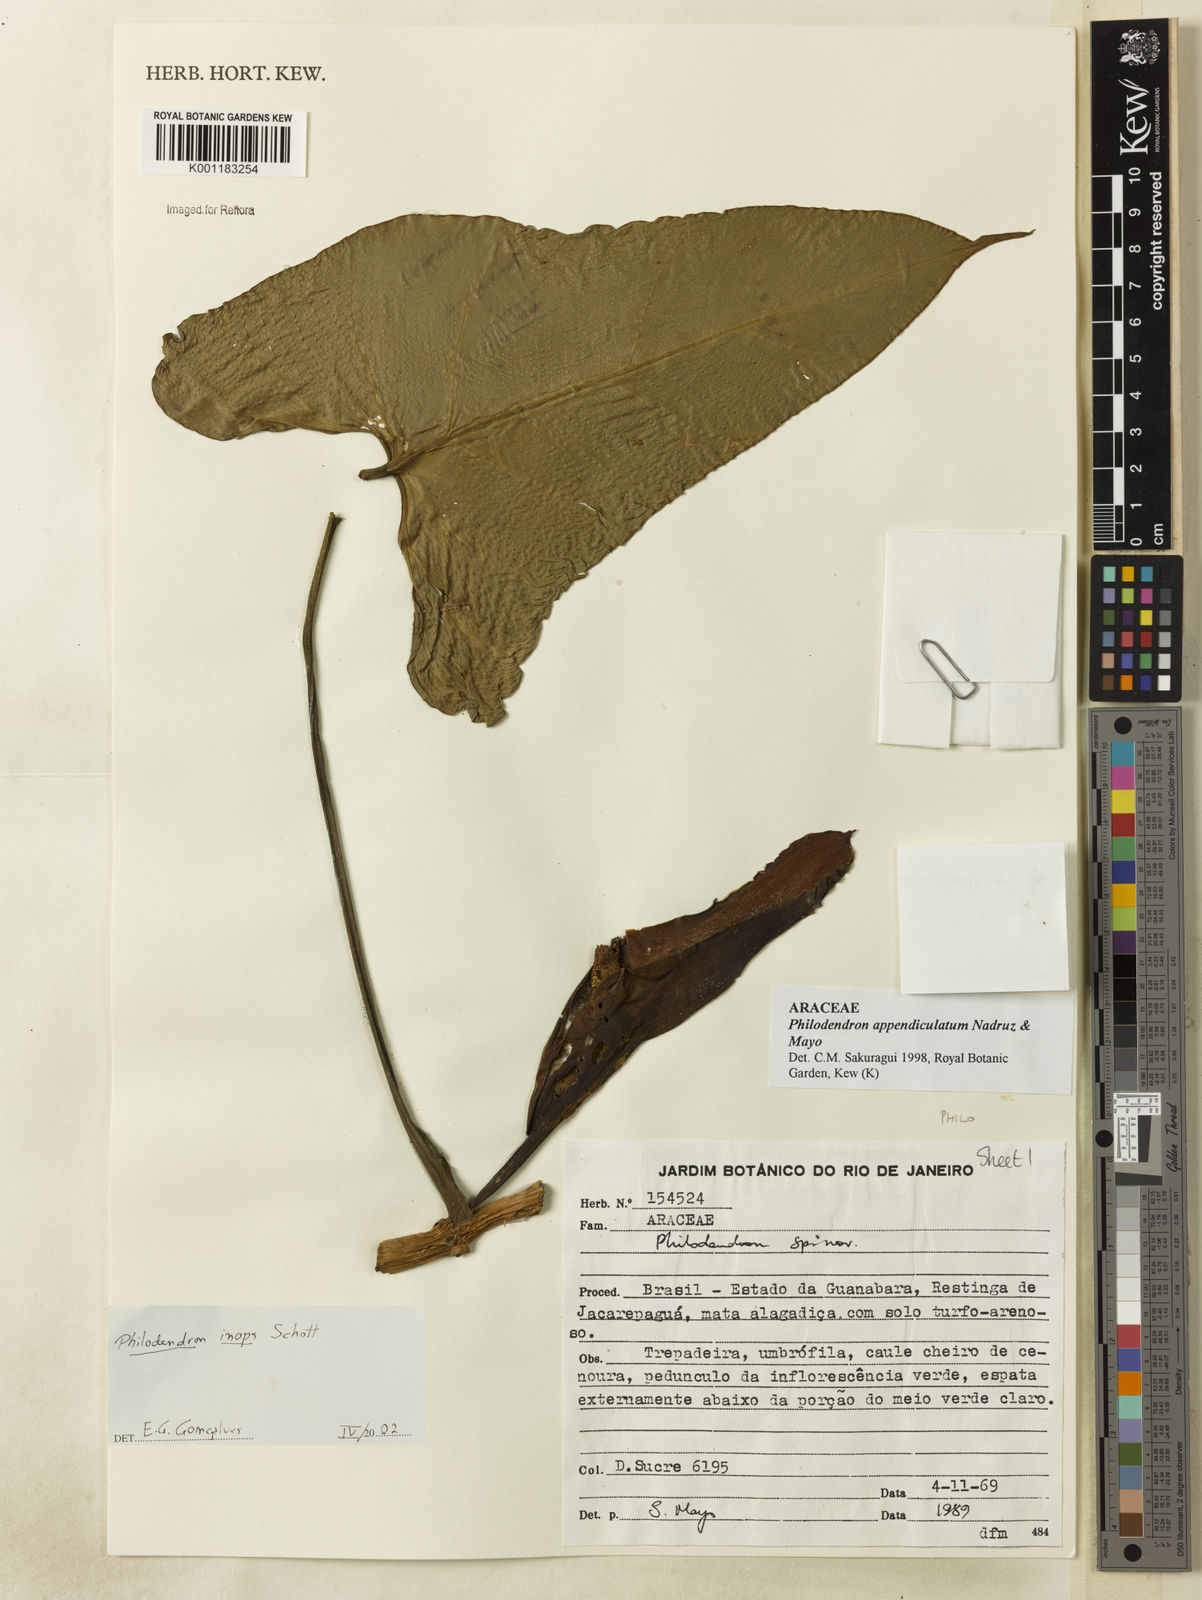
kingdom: Plantae
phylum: Tracheophyta
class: Liliopsida
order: Alismatales
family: Araceae
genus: Philodendron
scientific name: Philodendron inops
